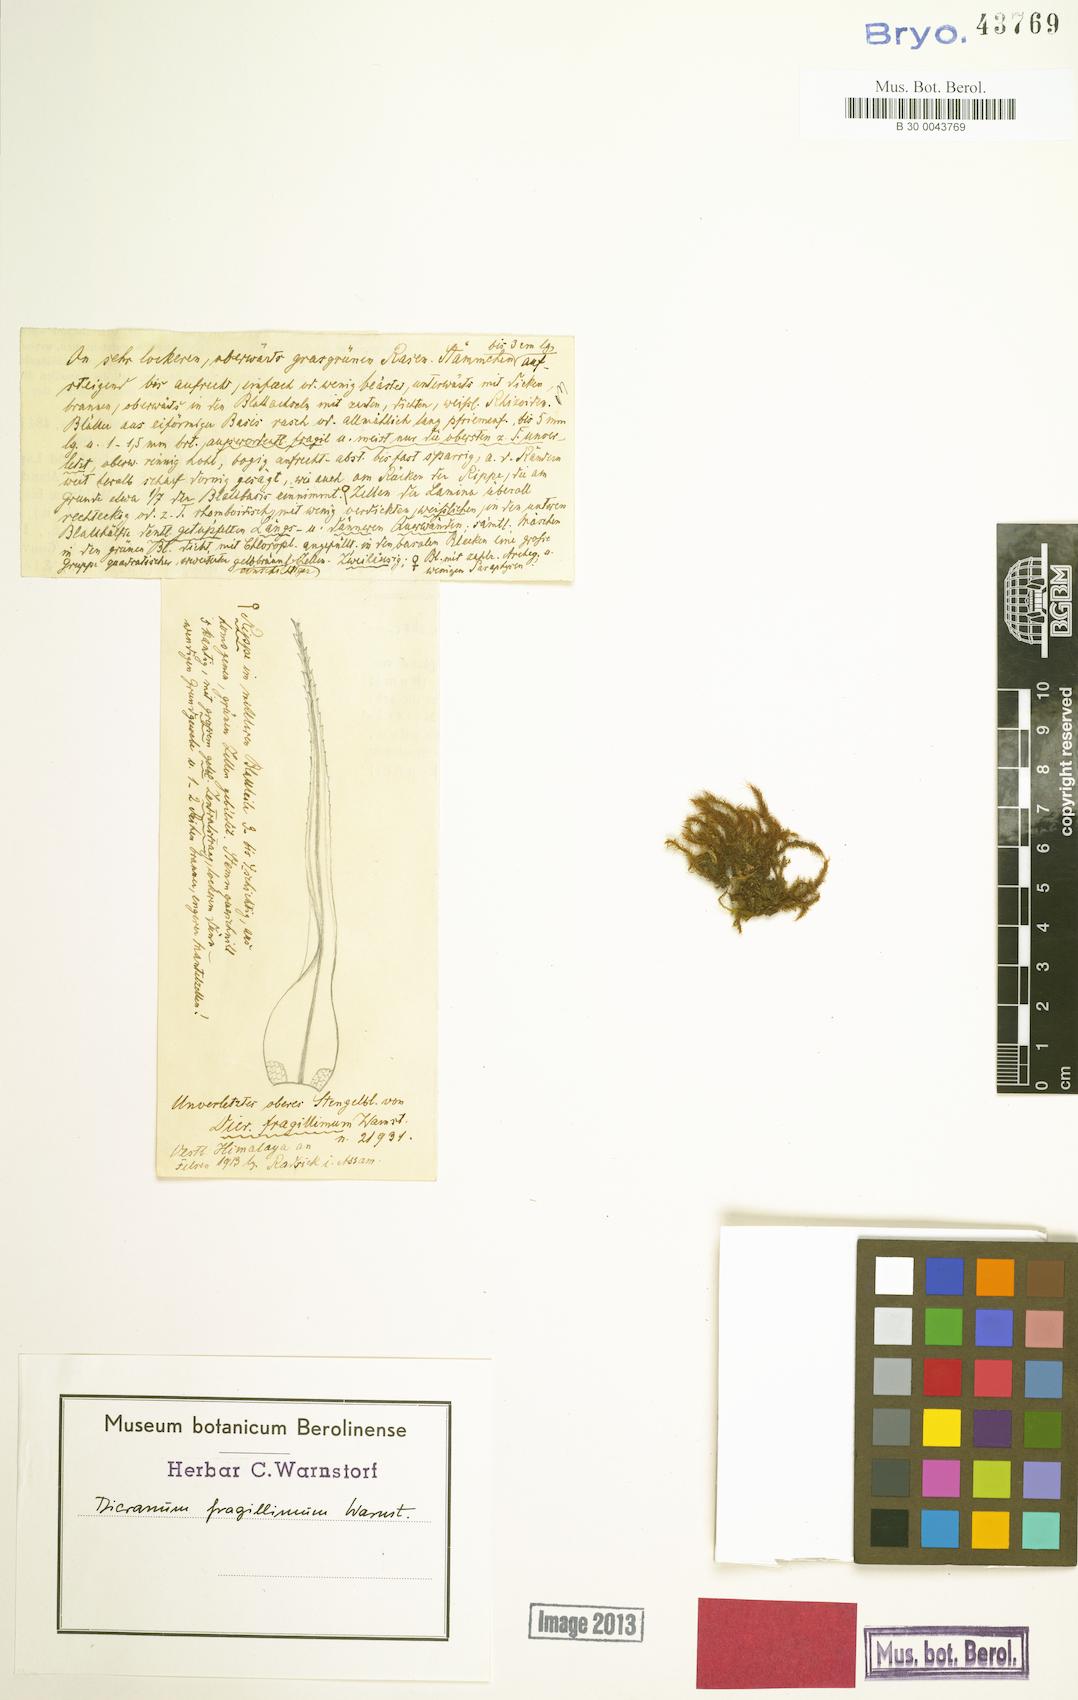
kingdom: Plantae
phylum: Bryophyta
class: Bryopsida
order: Dicranales
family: Dicranaceae
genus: Dicranum
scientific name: Dicranum fragillimum
